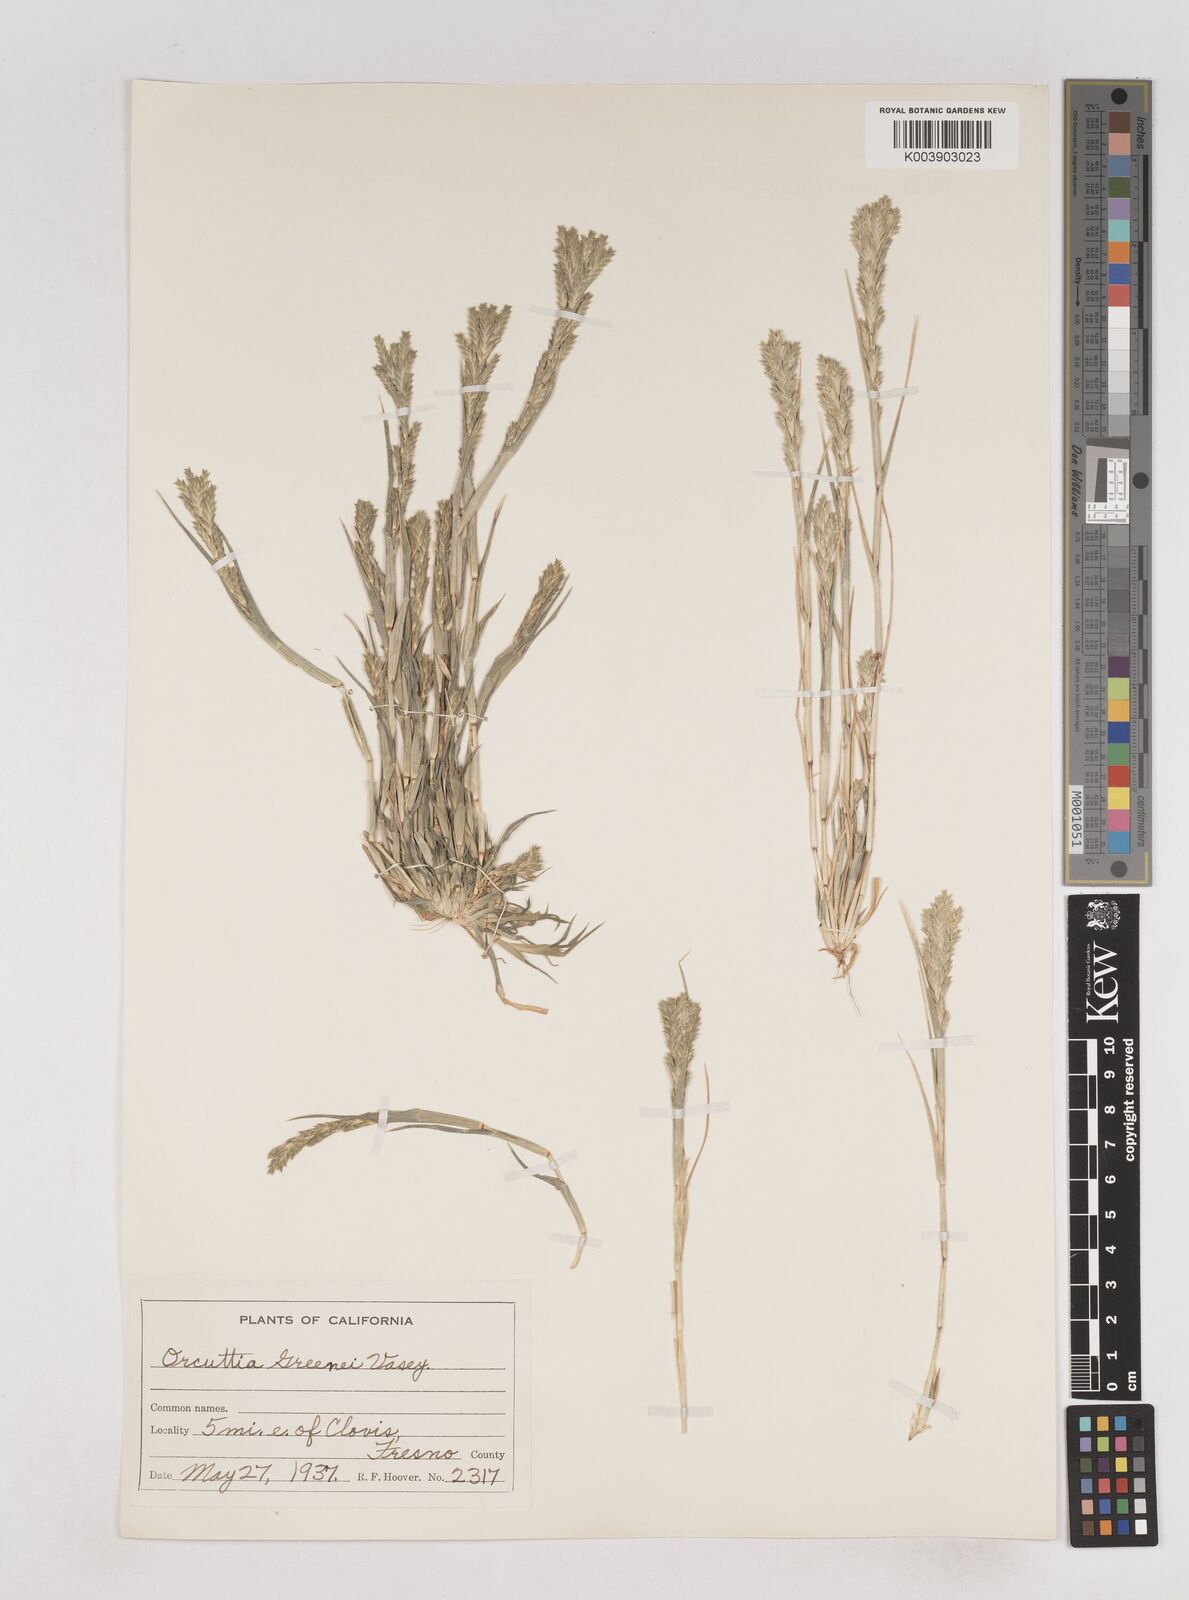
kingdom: Plantae
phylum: Tracheophyta
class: Liliopsida
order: Poales
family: Poaceae
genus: Tuctoria
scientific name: Tuctoria greenei
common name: Awnless spiral grass
